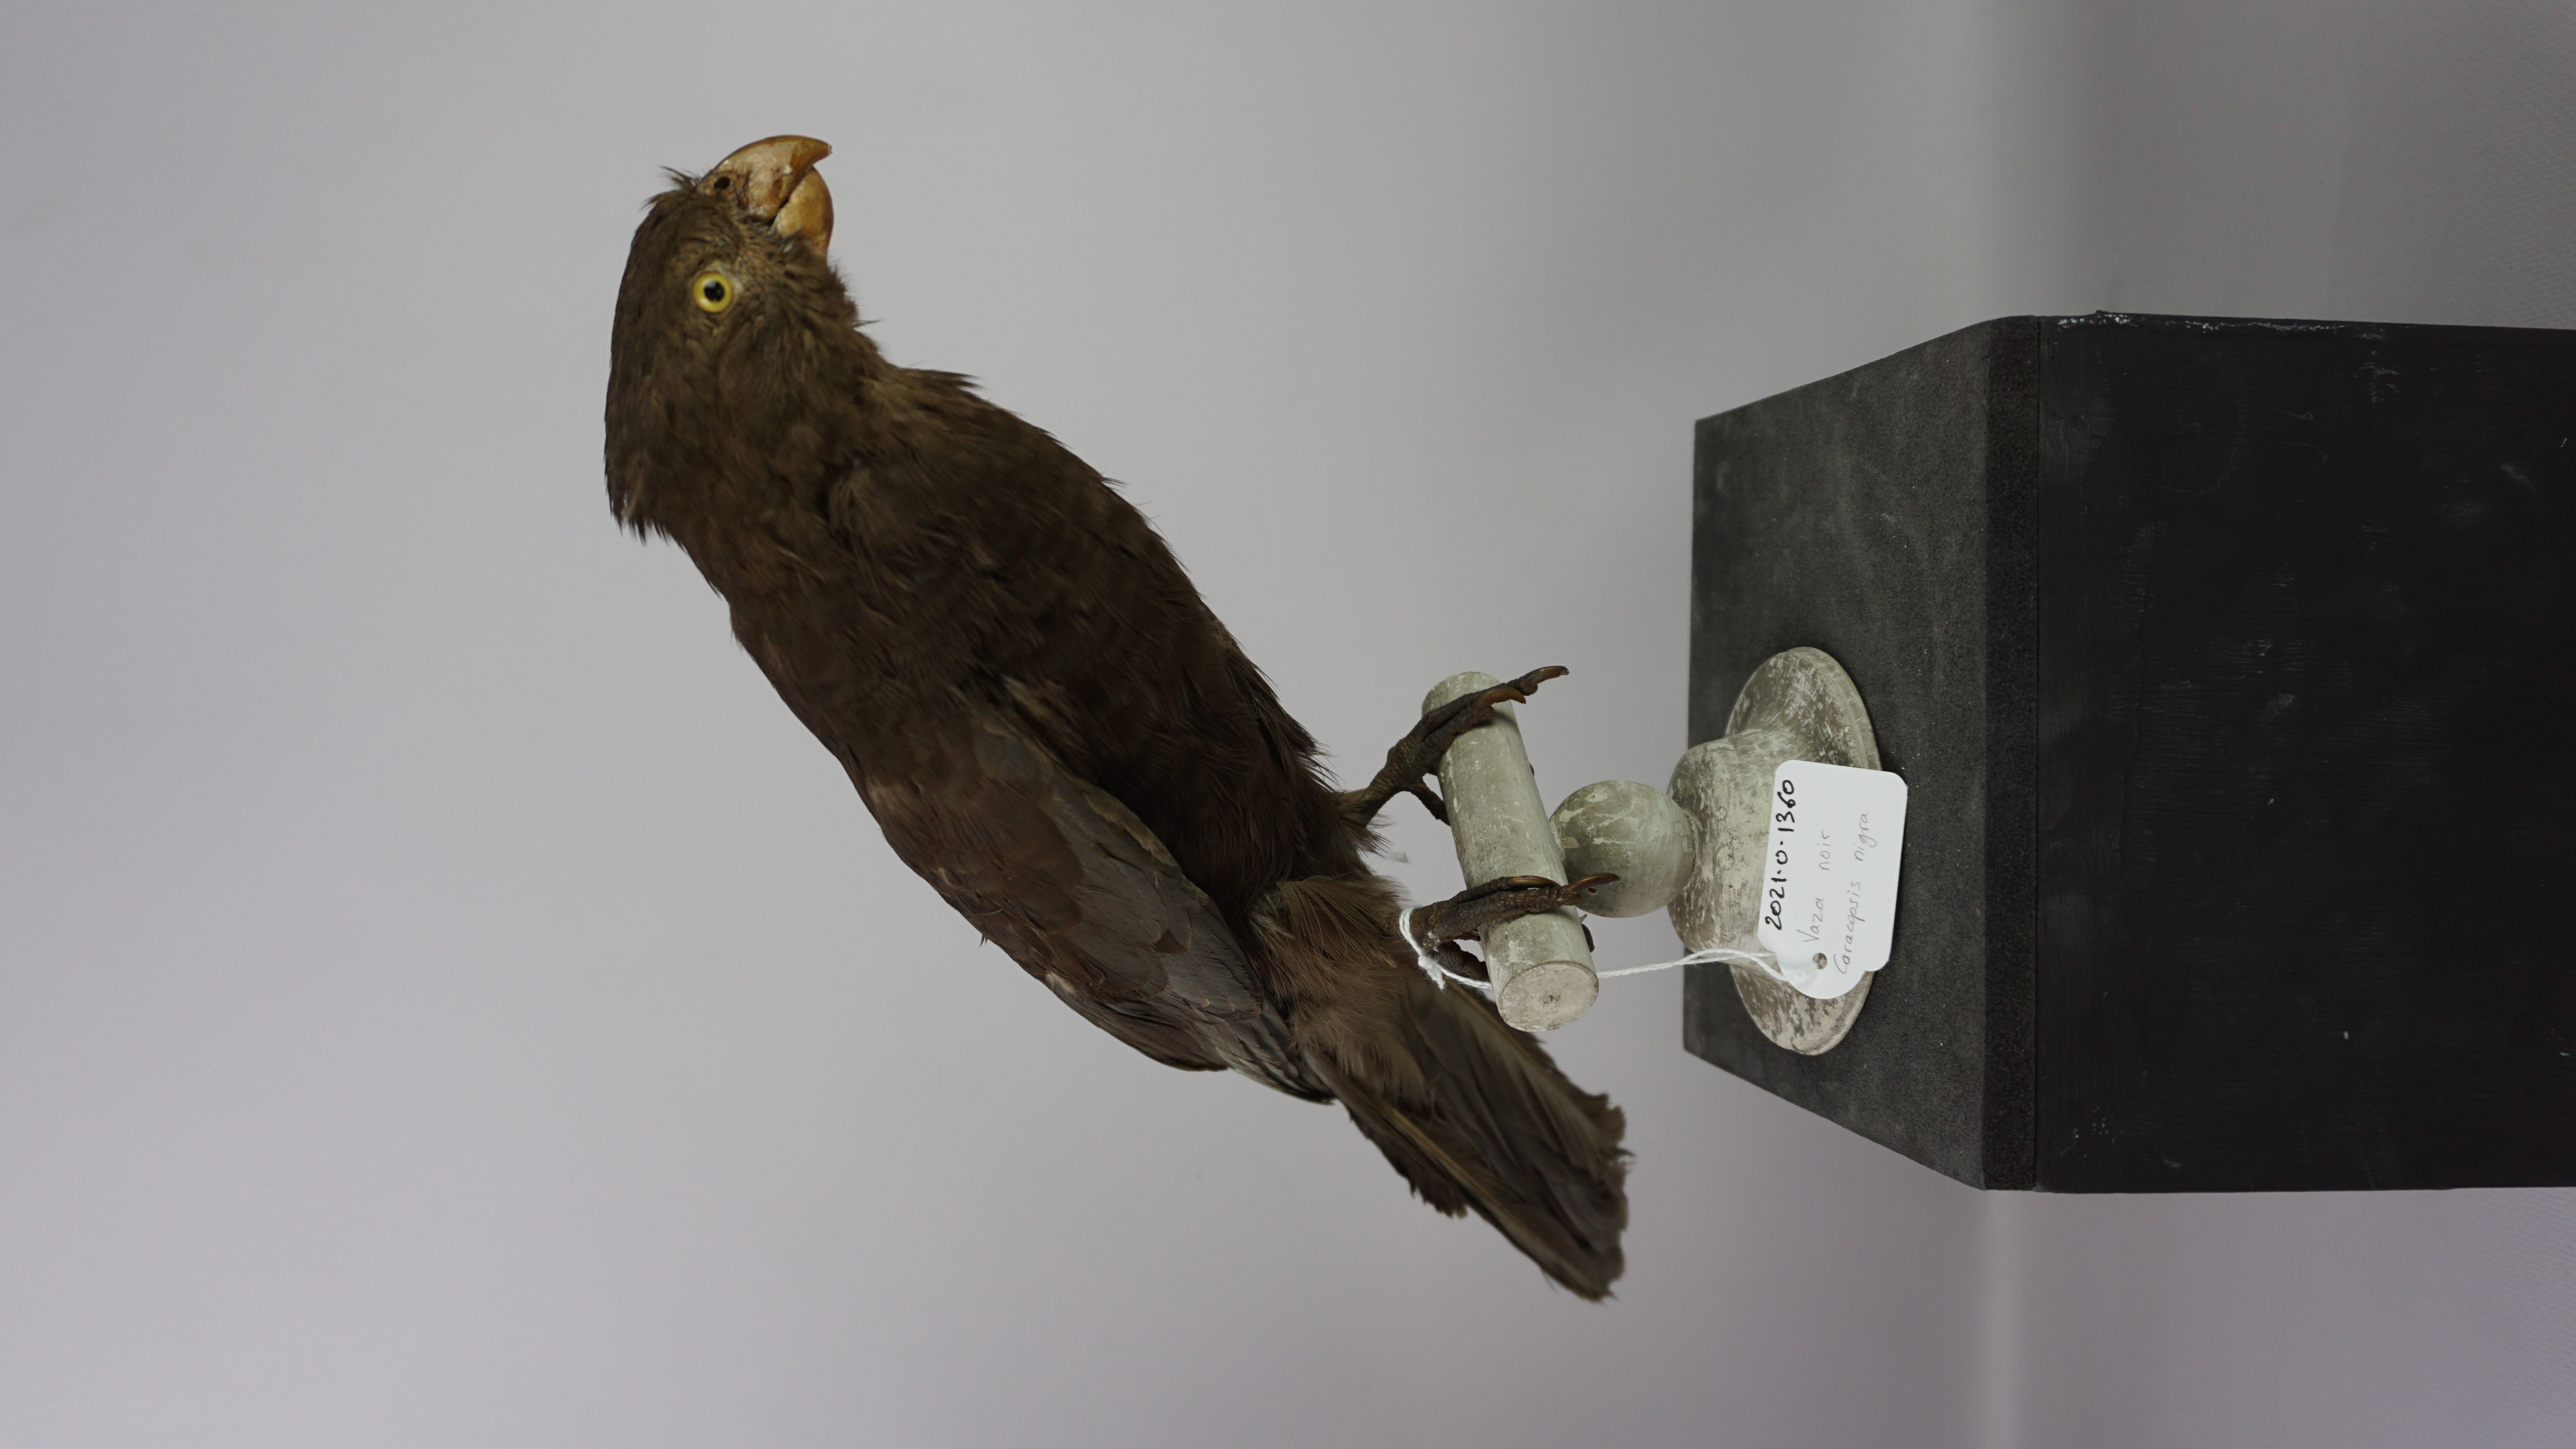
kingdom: Animalia
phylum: Chordata
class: Aves
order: Psittaciformes
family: Psittacidae
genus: Coracopsis
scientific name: Coracopsis nigra
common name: Lesser vasa parrot
